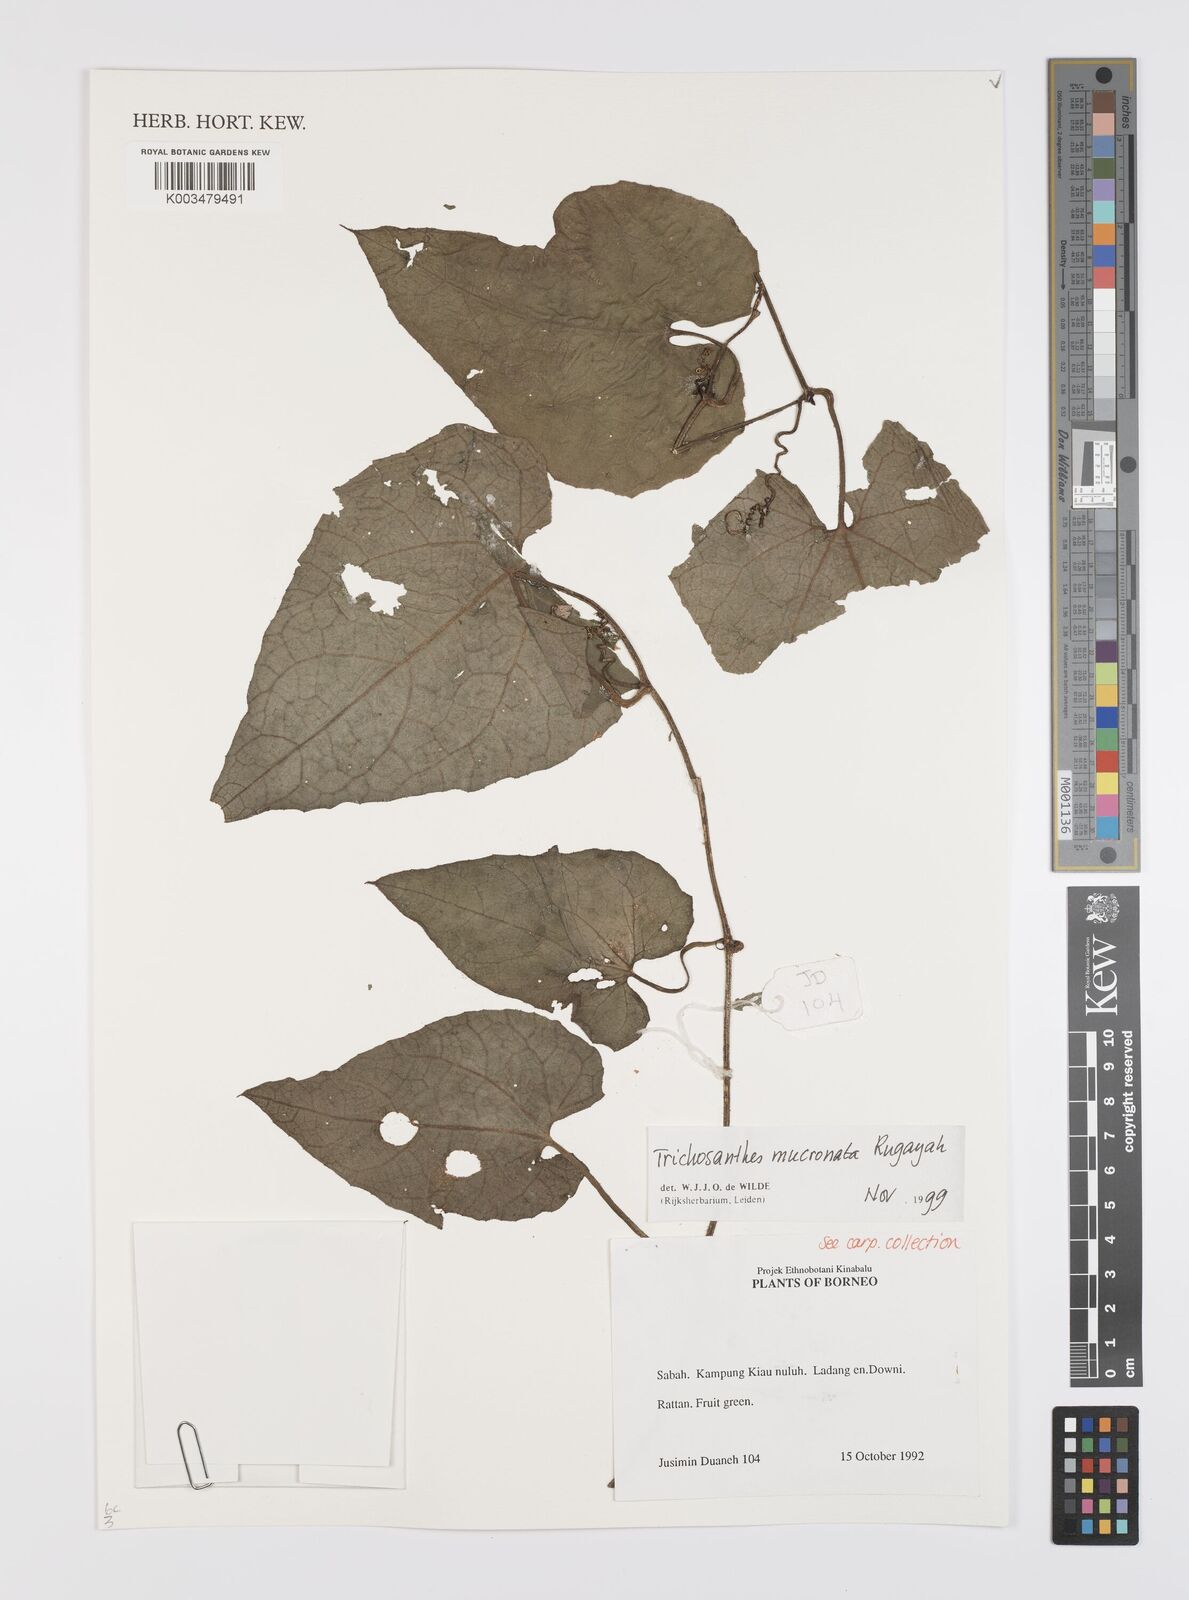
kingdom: Plantae
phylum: Tracheophyta
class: Magnoliopsida
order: Cucurbitales
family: Cucurbitaceae
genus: Trichosanthes
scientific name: Trichosanthes mucronata
